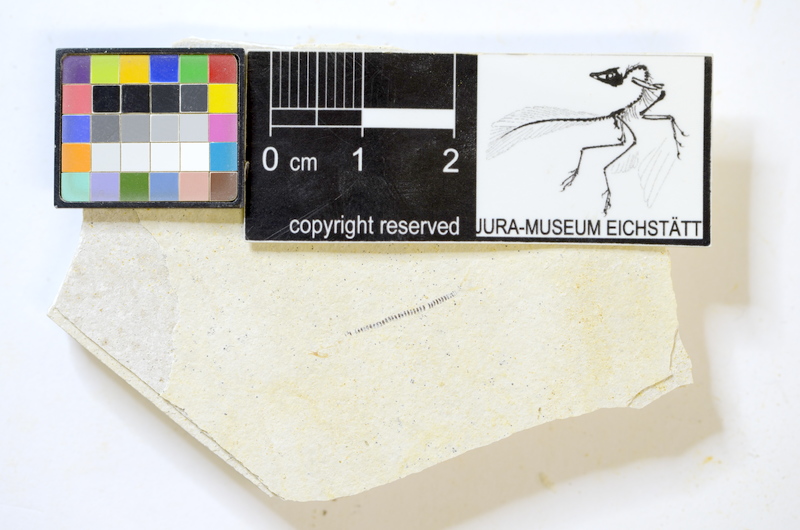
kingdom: Animalia
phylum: Chordata
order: Salmoniformes
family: Orthogonikleithridae
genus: Orthogonikleithrus
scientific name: Orthogonikleithrus hoelli
